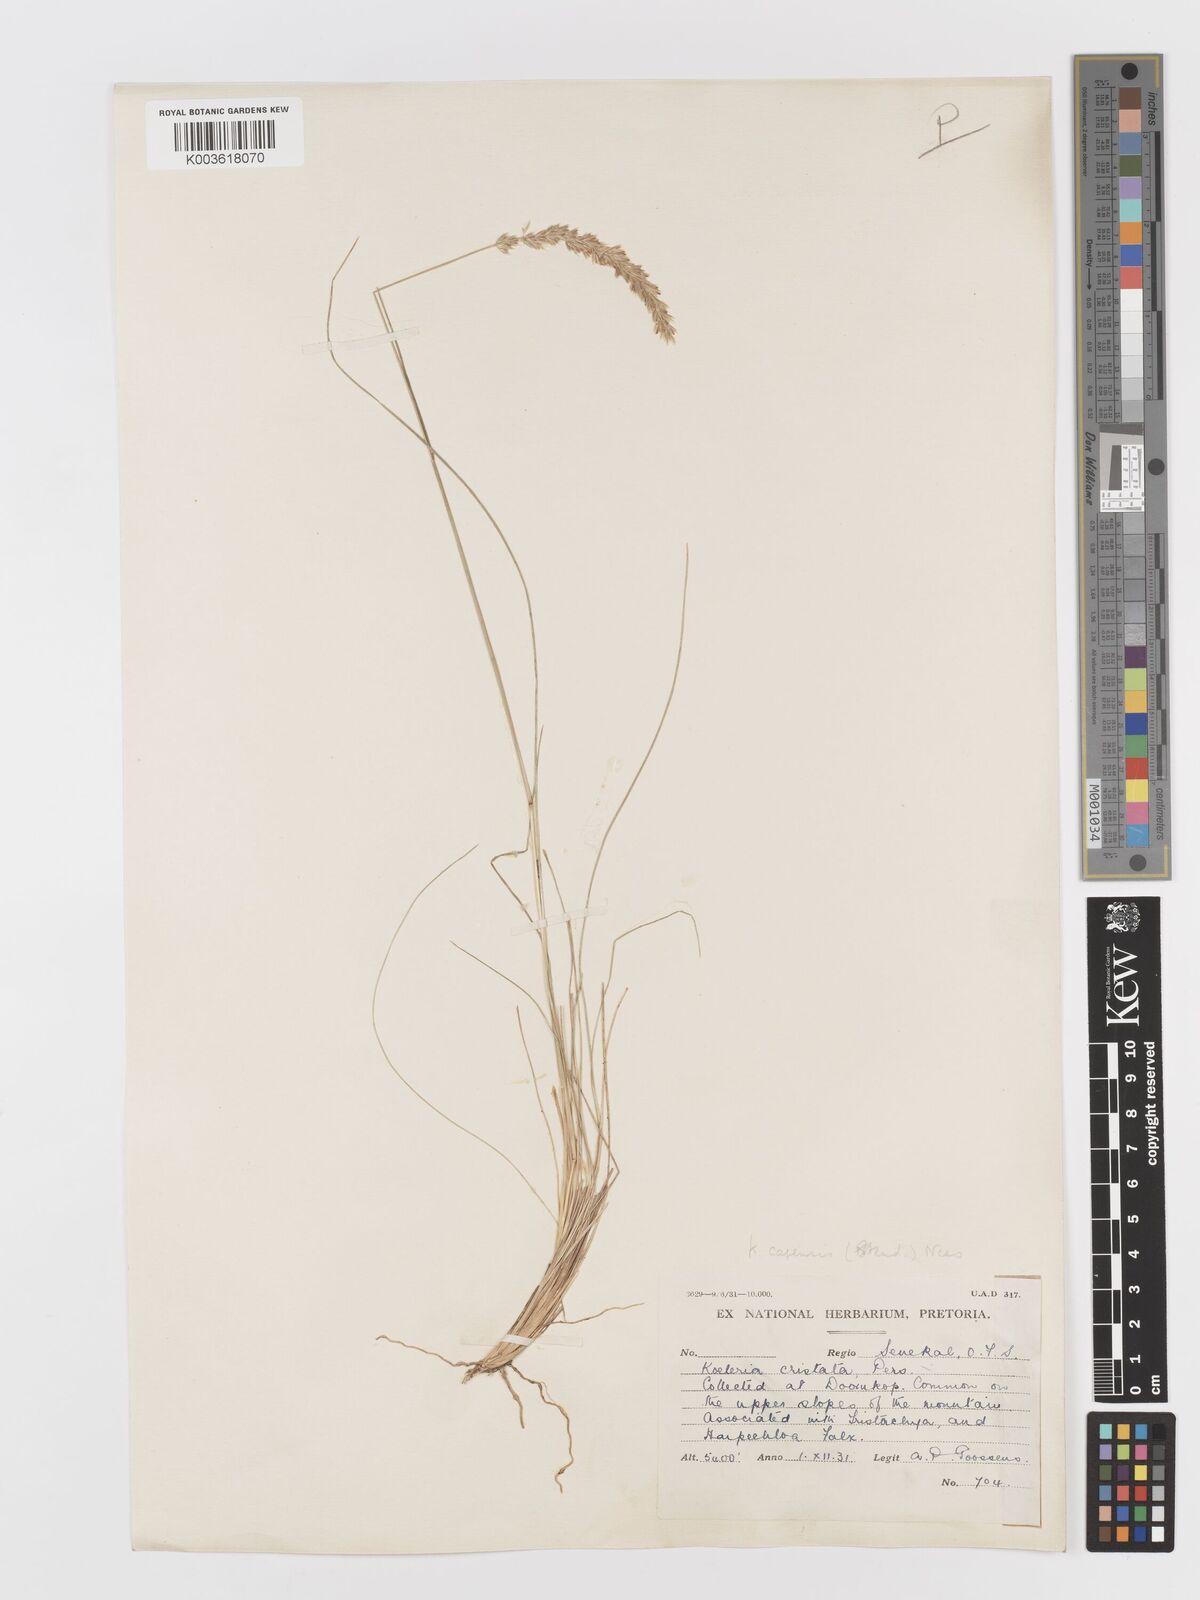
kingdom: Plantae
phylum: Tracheophyta
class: Liliopsida
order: Poales
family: Poaceae
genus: Koeleria
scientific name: Koeleria capensis
